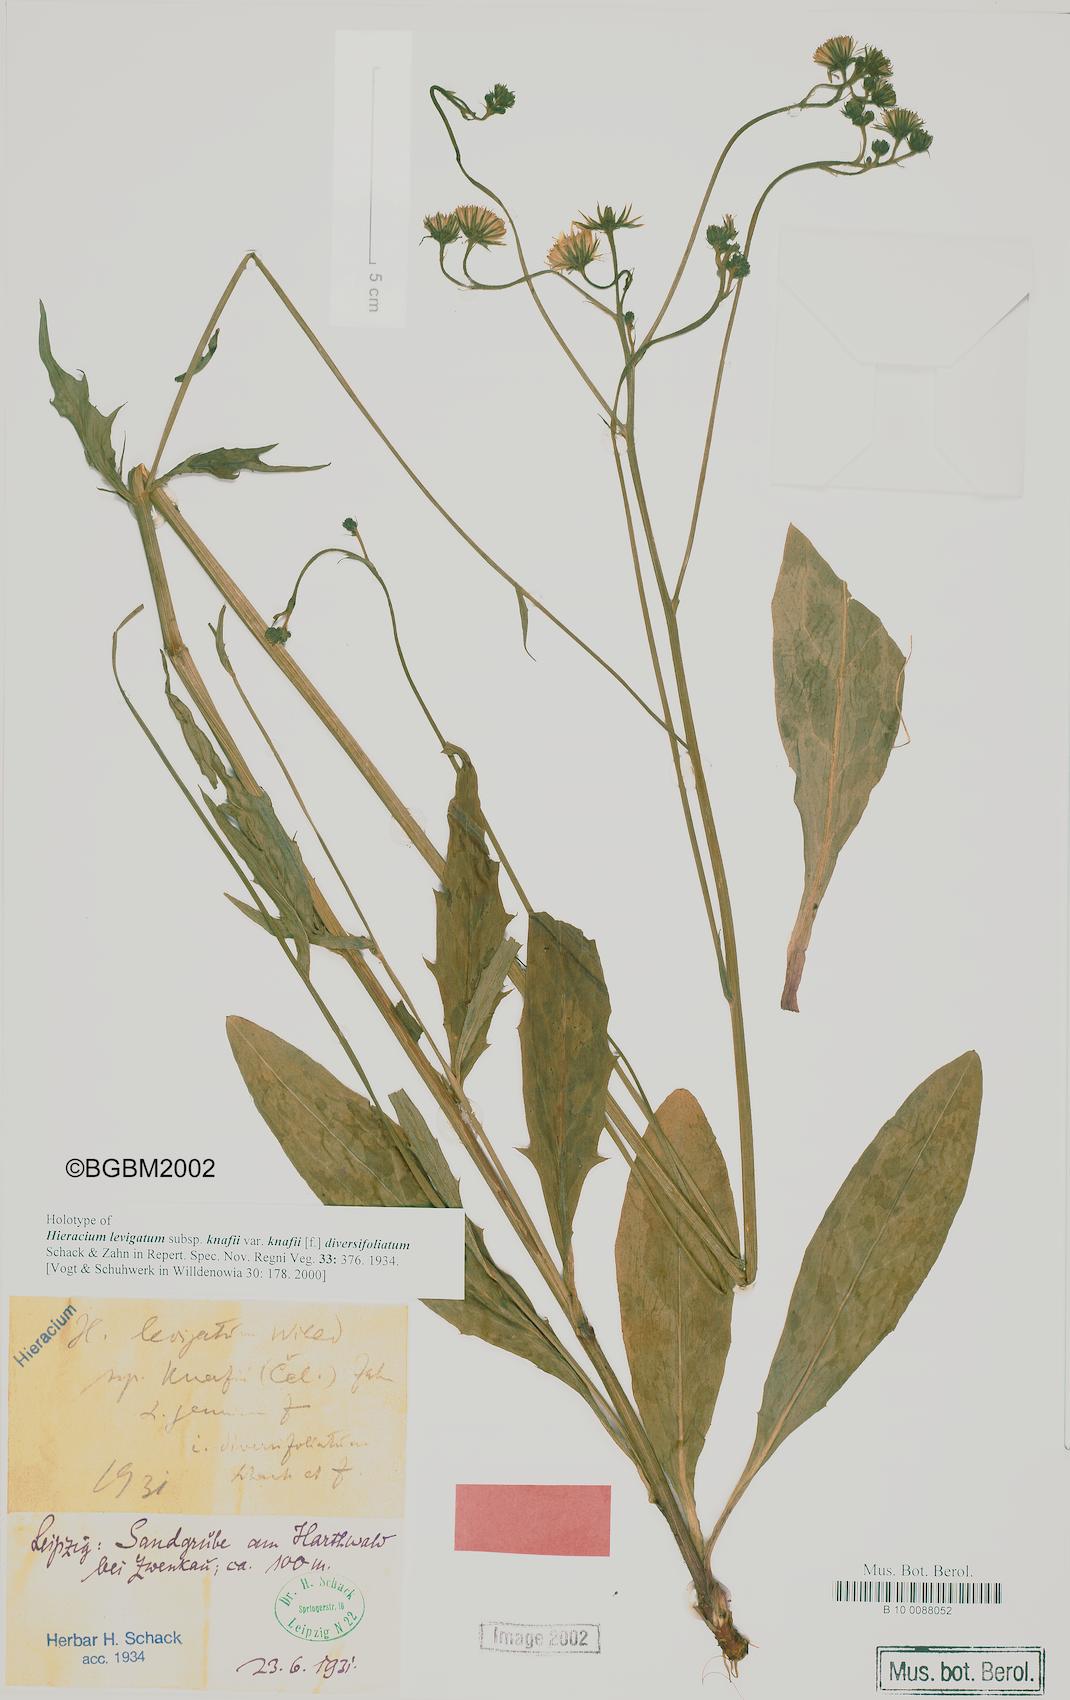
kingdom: Plantae
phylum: Tracheophyta
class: Magnoliopsida
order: Asterales
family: Asteraceae
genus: Hieracium
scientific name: Hieracium laevigatum
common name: Smooth hawkweed
